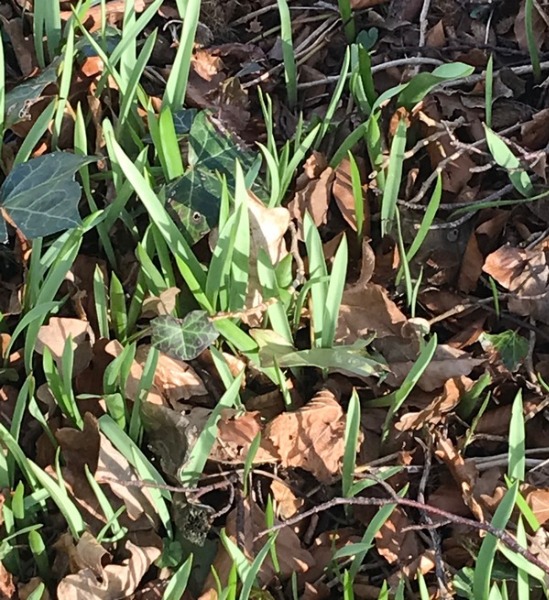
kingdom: Plantae
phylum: Tracheophyta
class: Liliopsida
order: Liliales
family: Liliaceae
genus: Tulipa
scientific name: Tulipa sylvestris
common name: Vild tulipan
